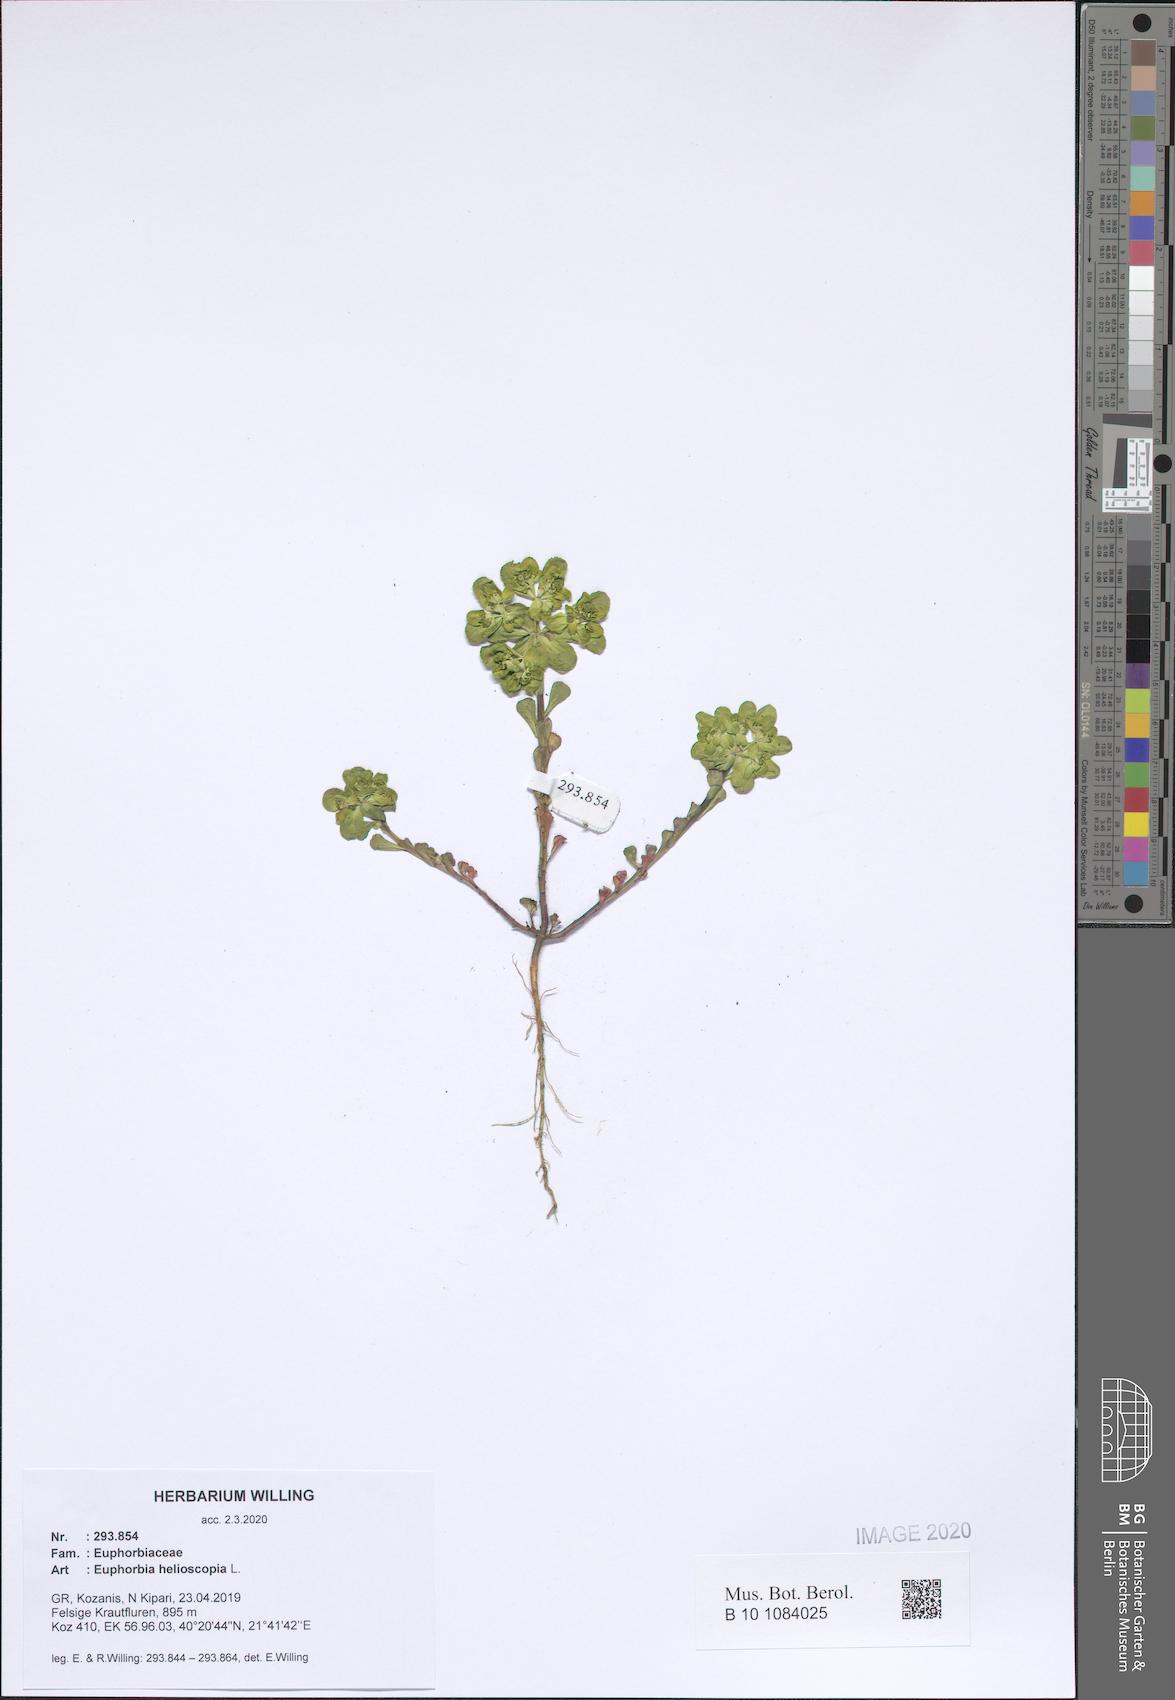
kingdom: Plantae
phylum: Tracheophyta
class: Magnoliopsida
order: Malpighiales
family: Euphorbiaceae
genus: Euphorbia
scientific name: Euphorbia helioscopia
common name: Sun spurge
